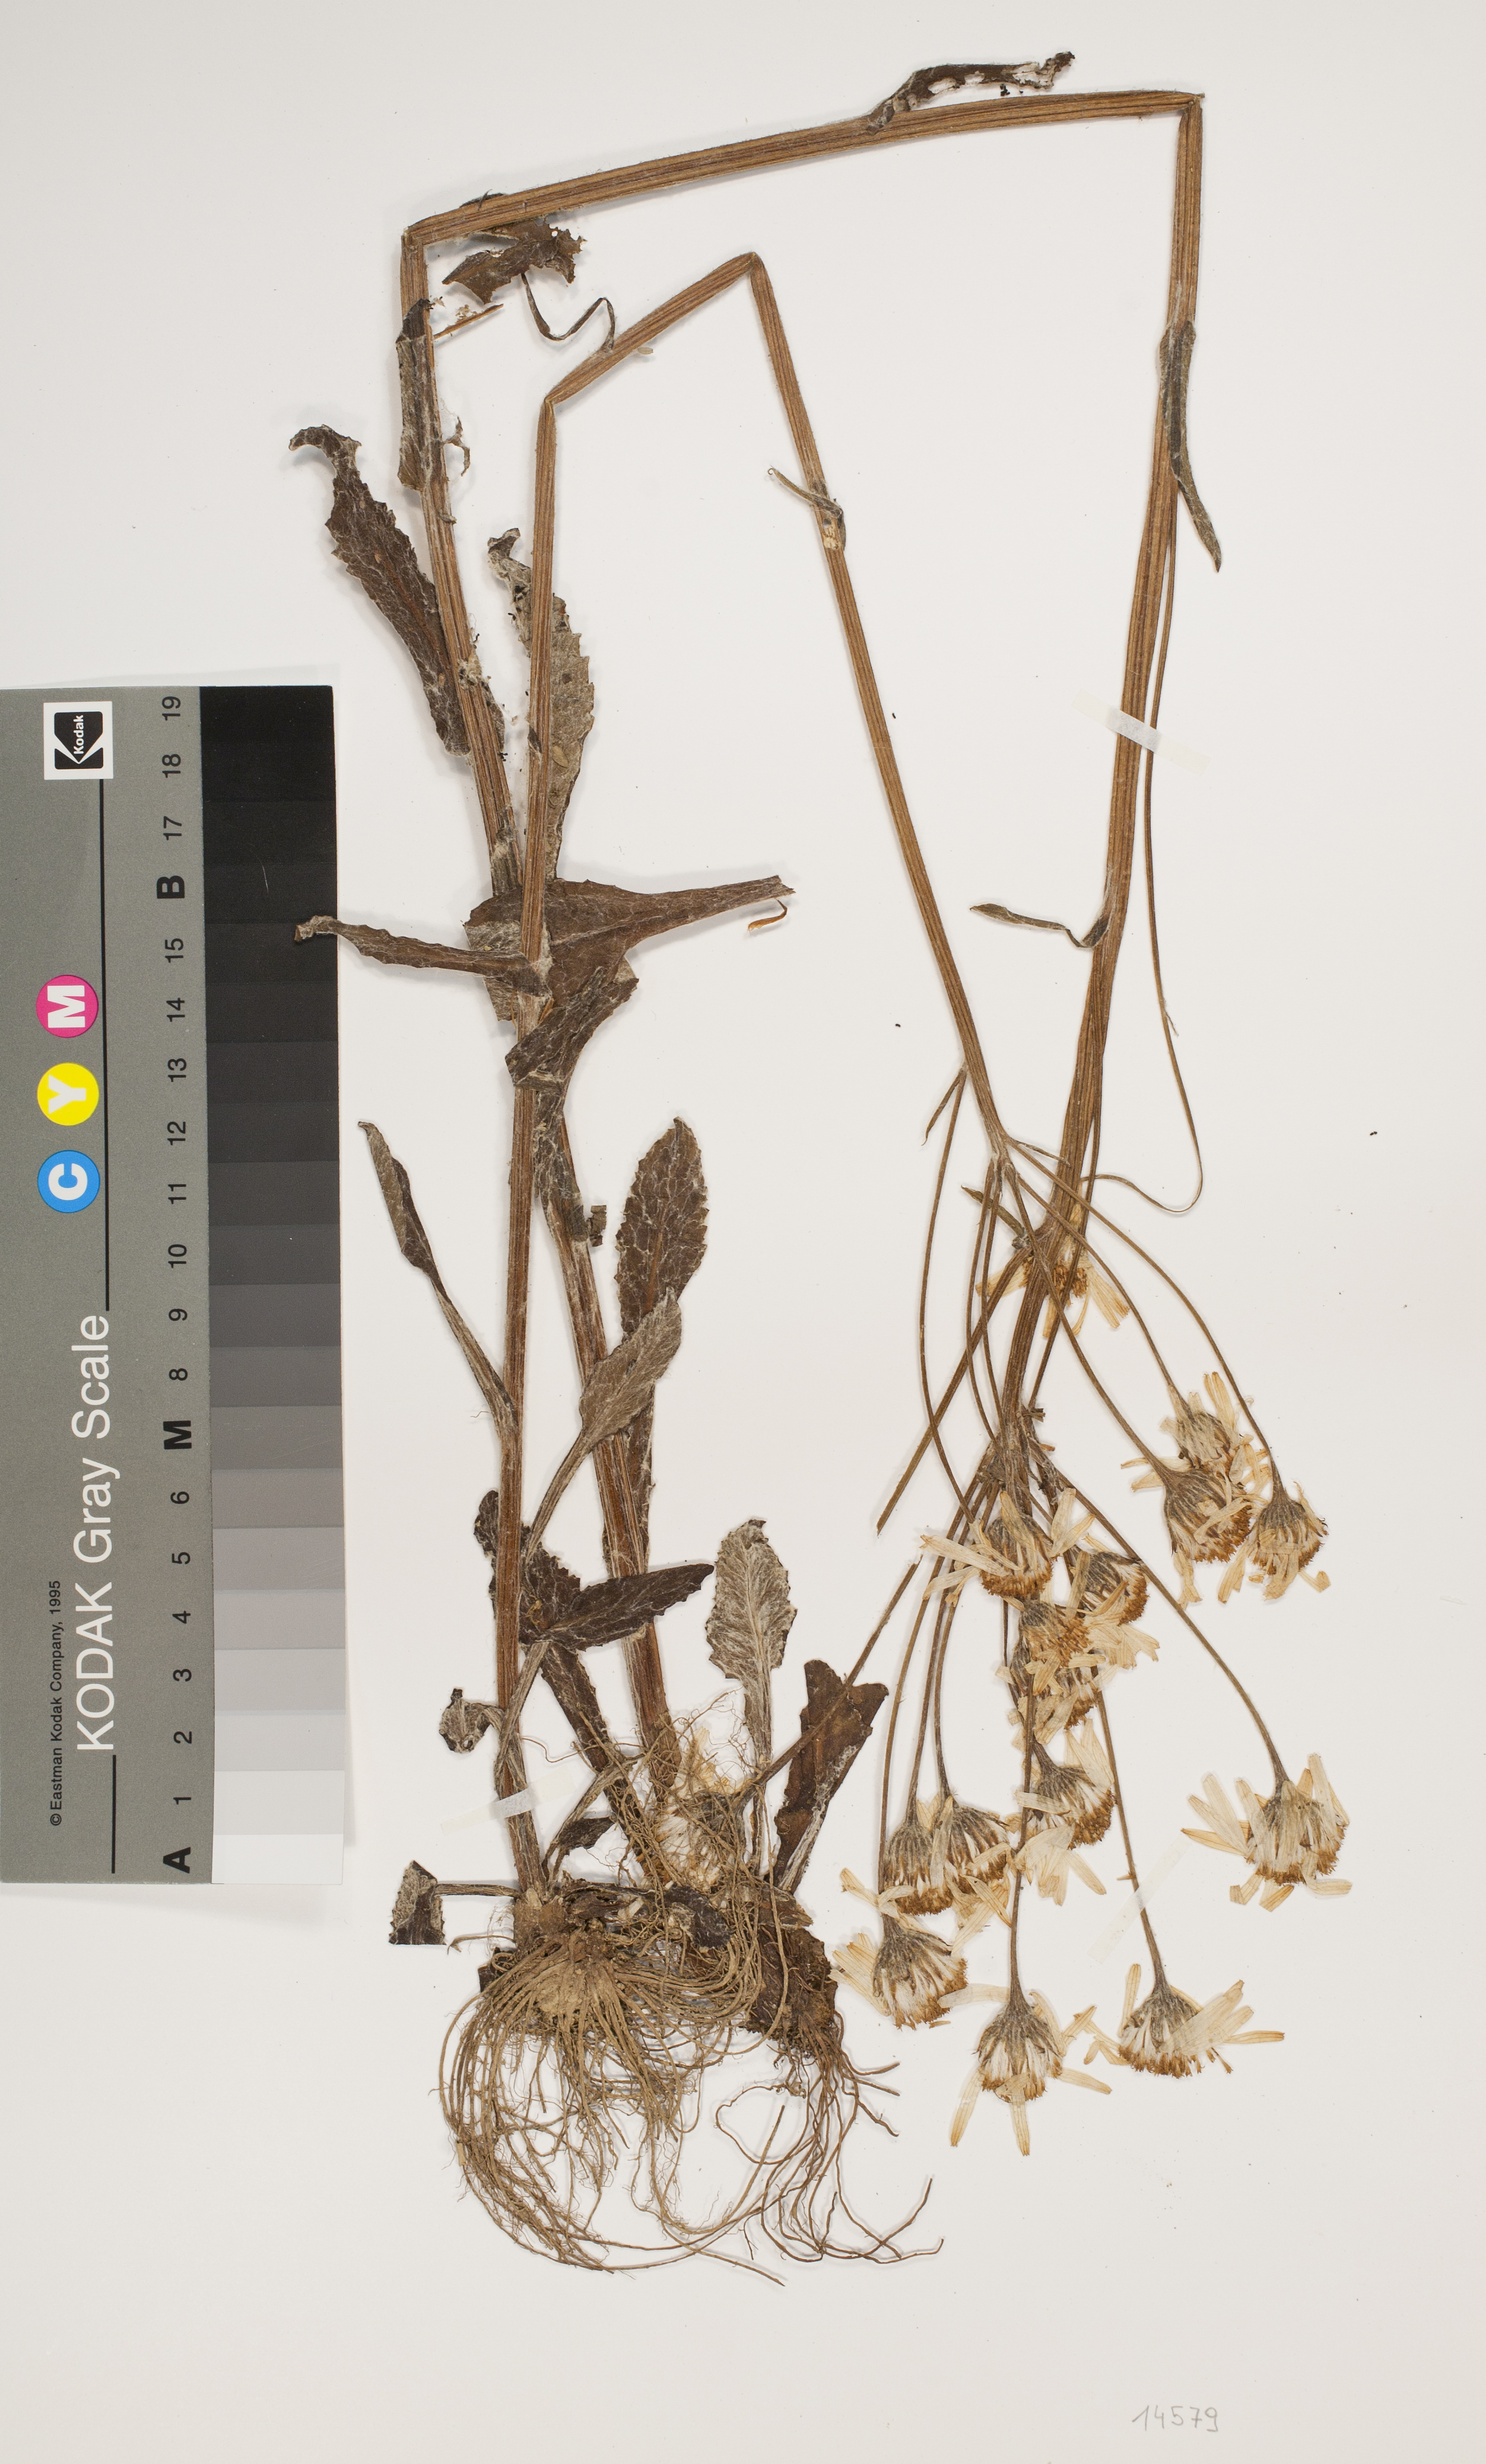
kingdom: Plantae
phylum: Tracheophyta
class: Magnoliopsida
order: Asterales
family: Asteraceae
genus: Senecio
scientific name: Senecio spathulaefolius
